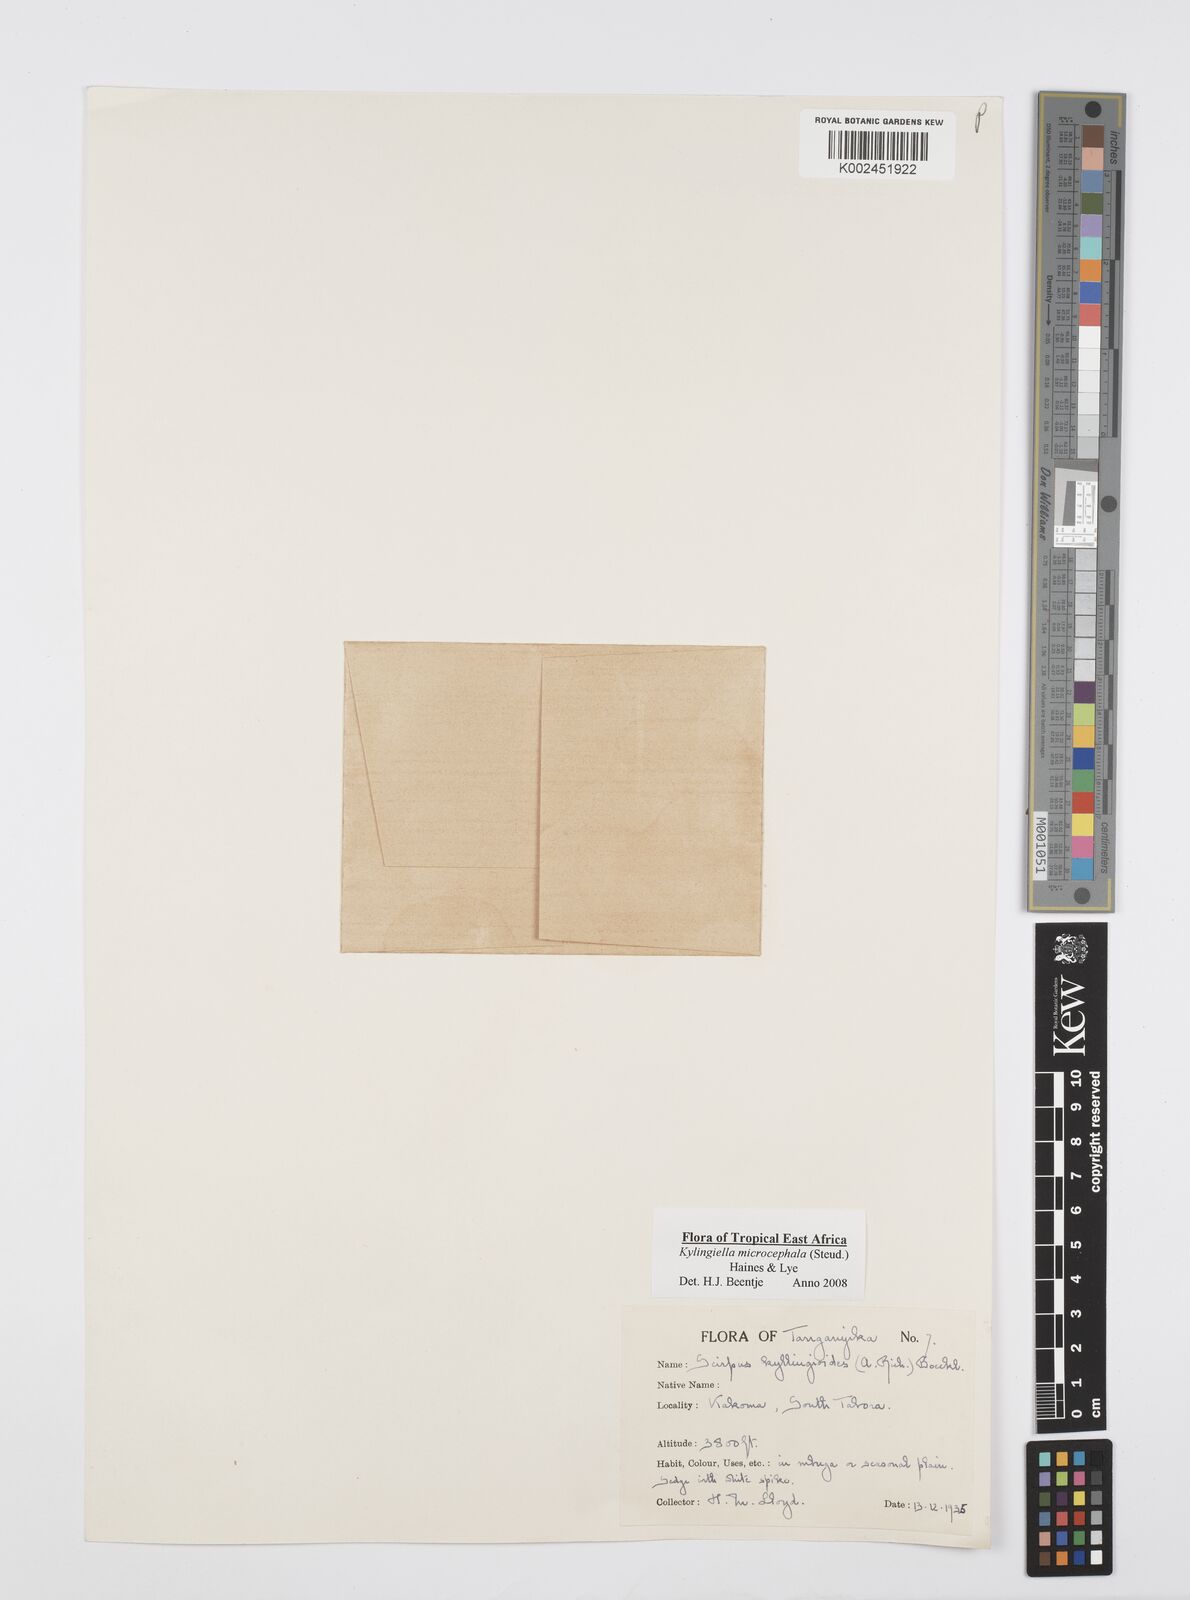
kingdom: Plantae
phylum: Tracheophyta
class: Liliopsida
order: Poales
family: Cyperaceae
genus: Cyperus
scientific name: Cyperus microcephalus
